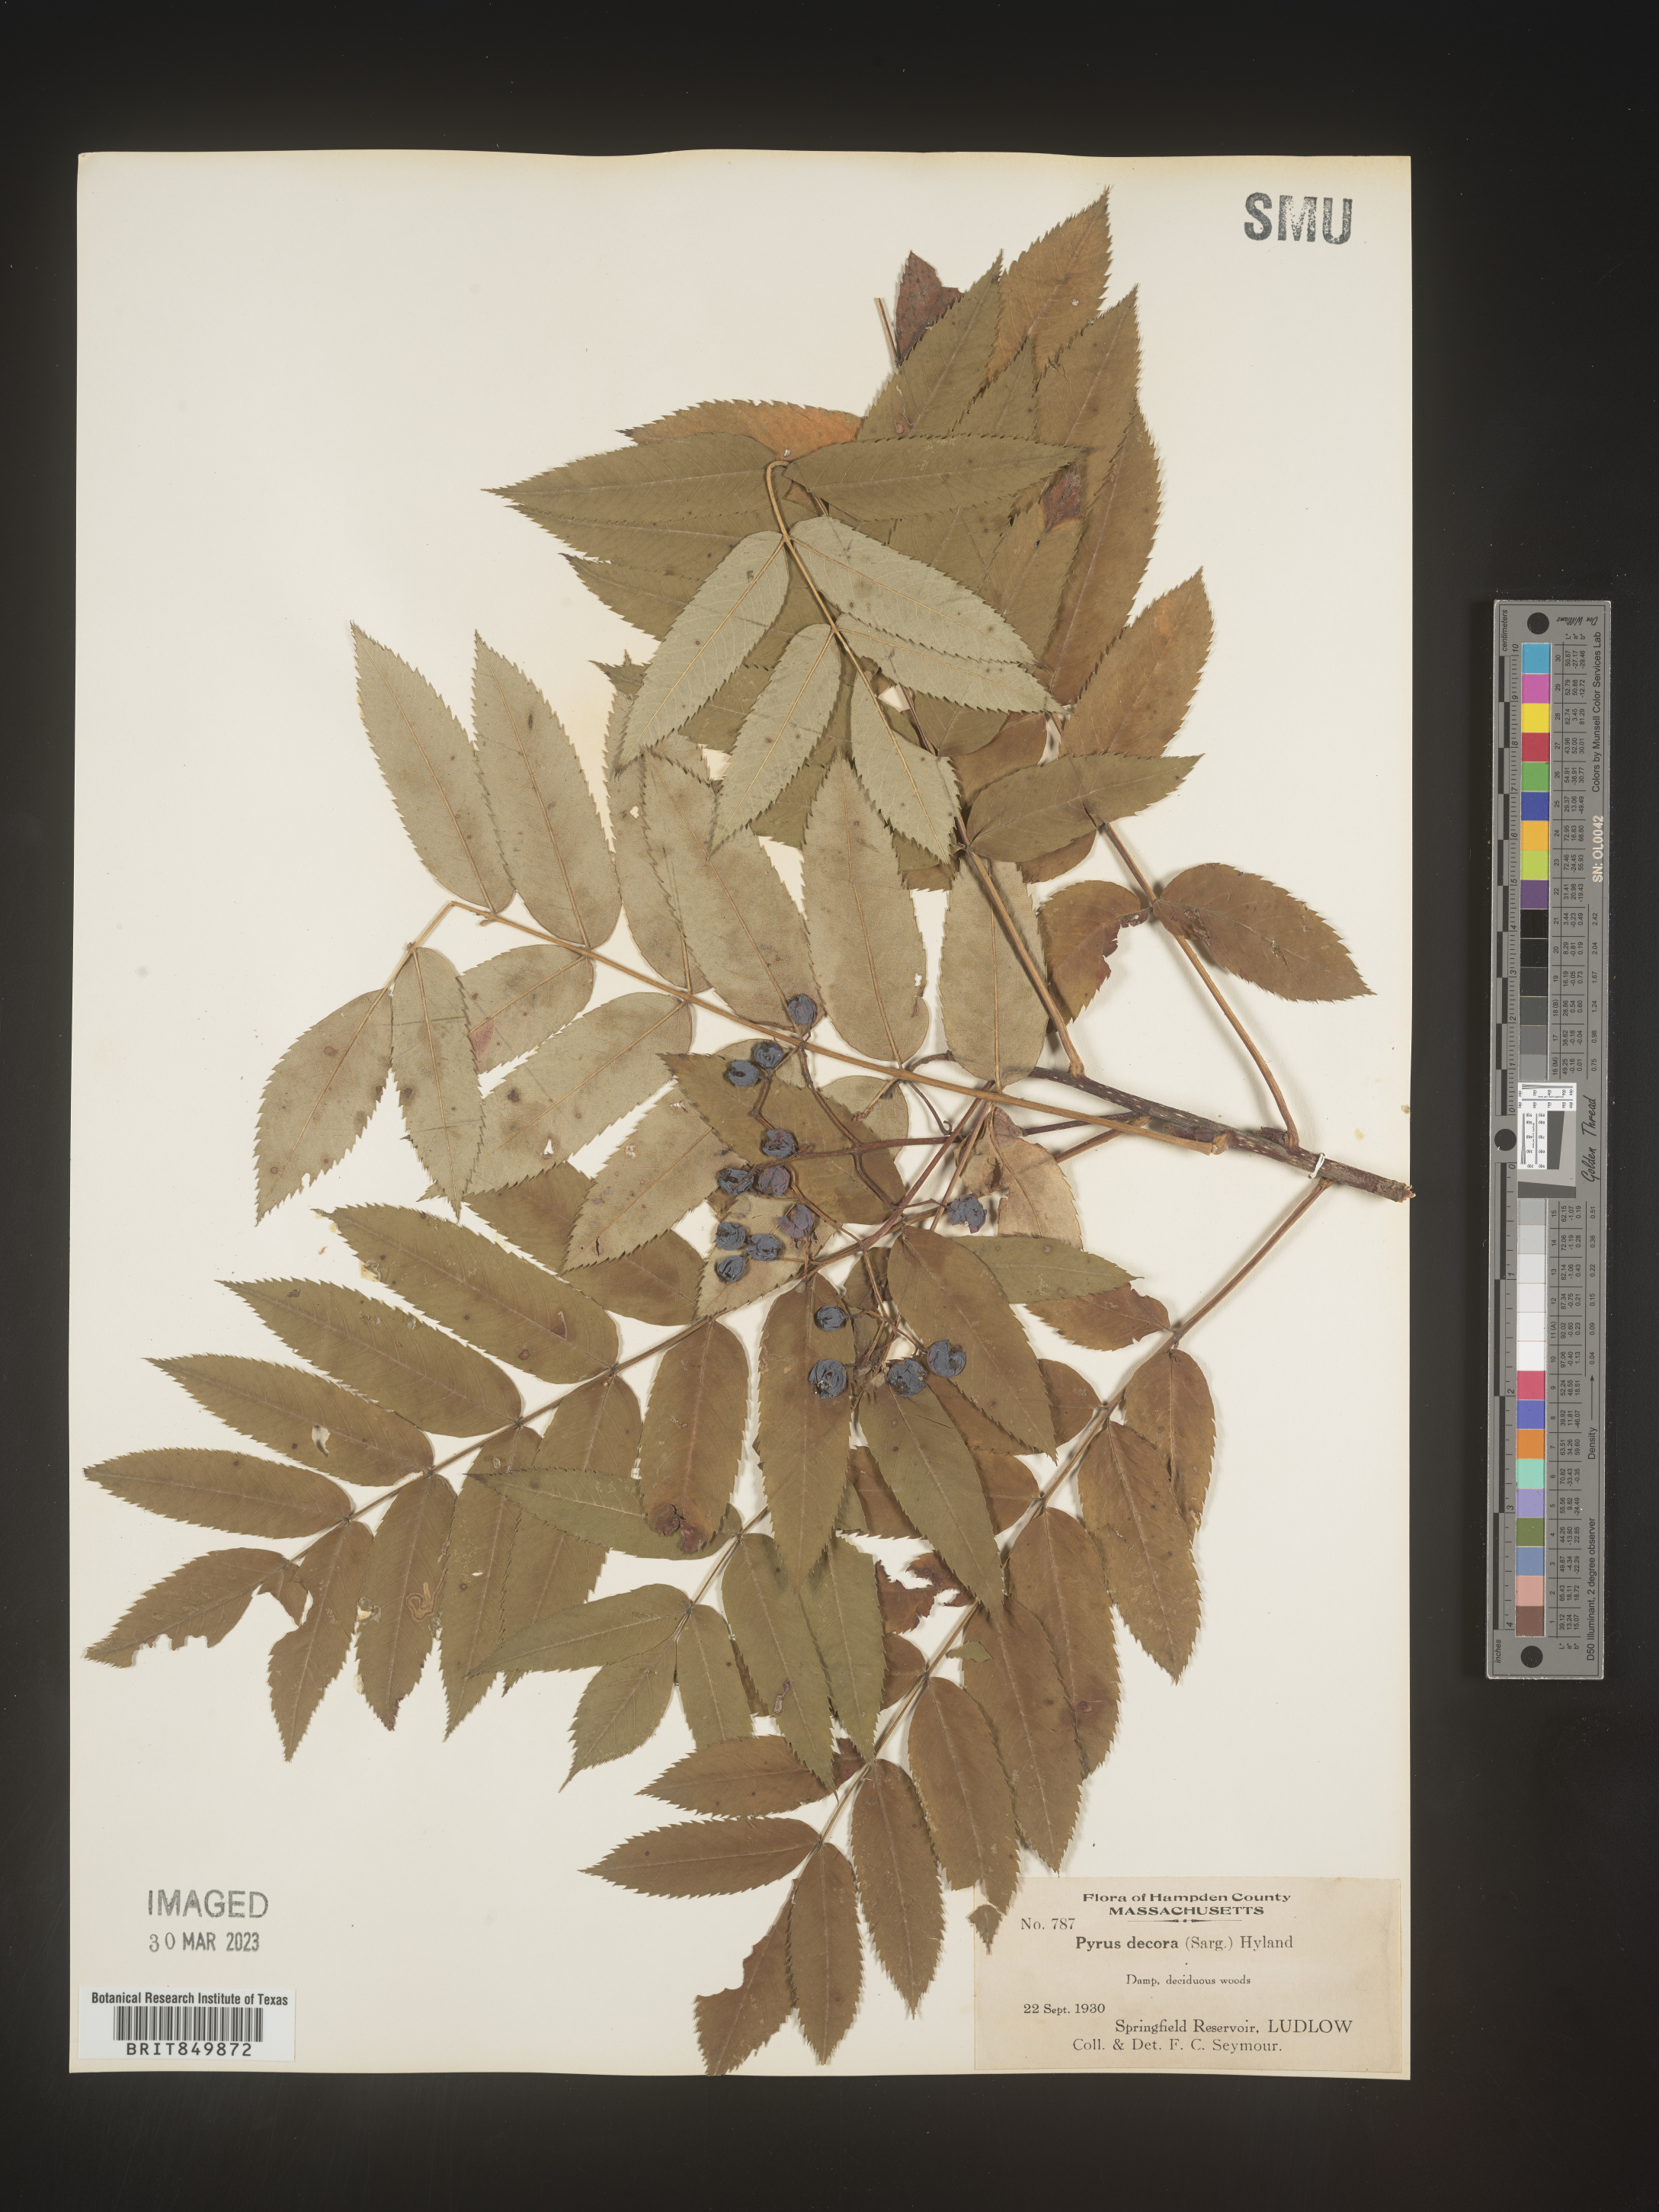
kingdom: Plantae
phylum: Tracheophyta
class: Magnoliopsida
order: Rosales
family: Rosaceae
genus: Sorbus
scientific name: Sorbus
